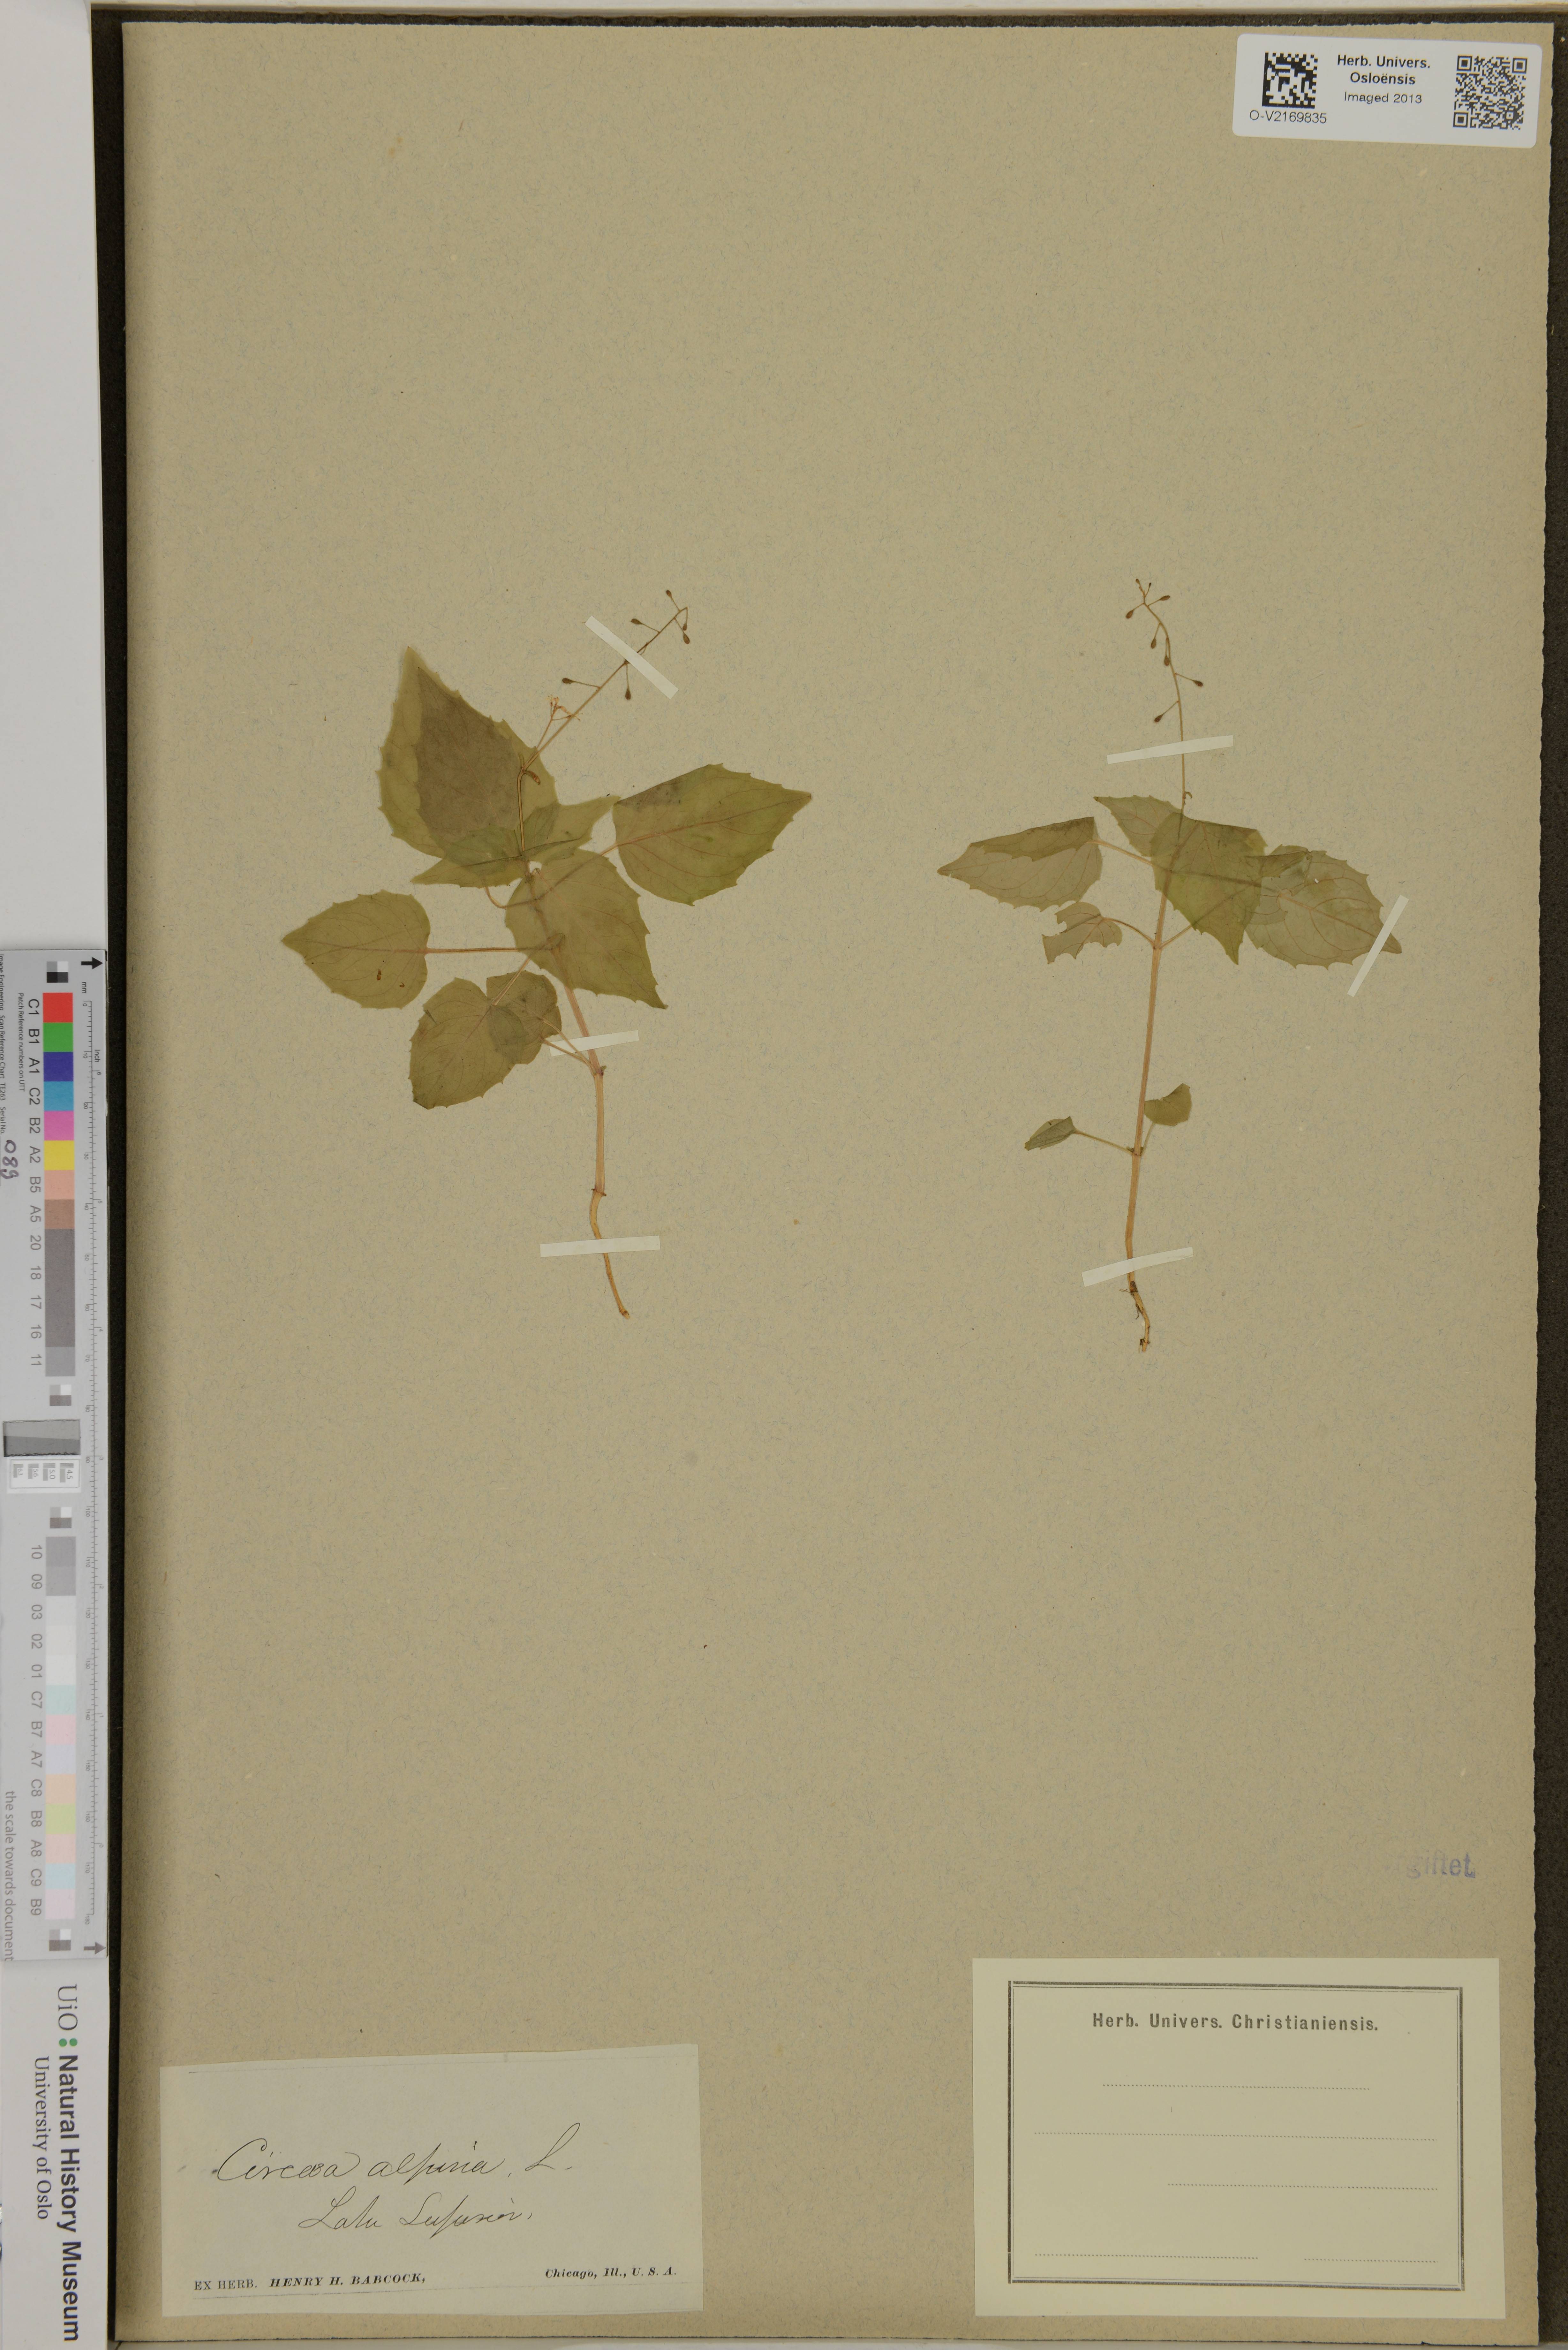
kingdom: Plantae
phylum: Tracheophyta
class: Magnoliopsida
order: Myrtales
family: Onagraceae
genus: Circaea
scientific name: Circaea alpina
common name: Alpine enchanter's-nightshade
